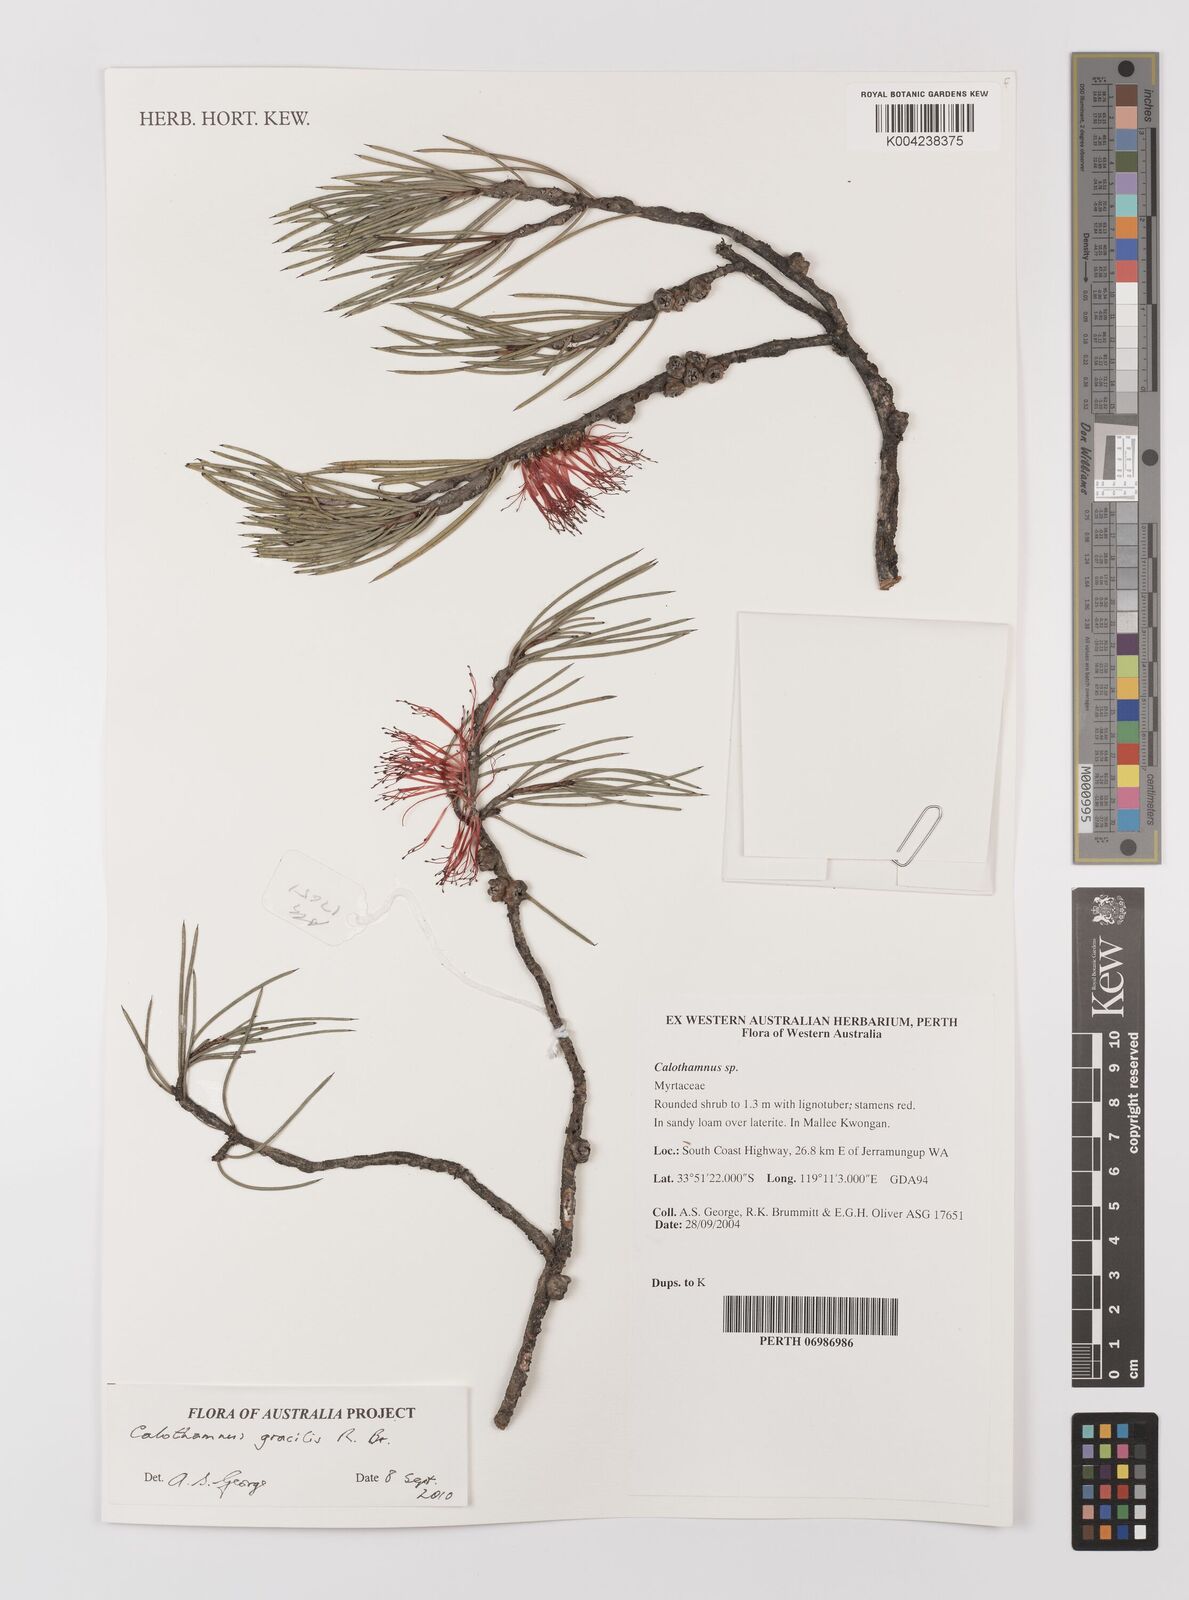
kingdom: Plantae
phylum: Tracheophyta
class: Magnoliopsida
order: Myrtales
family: Myrtaceae
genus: Melaleuca
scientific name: Melaleuca gracilis
